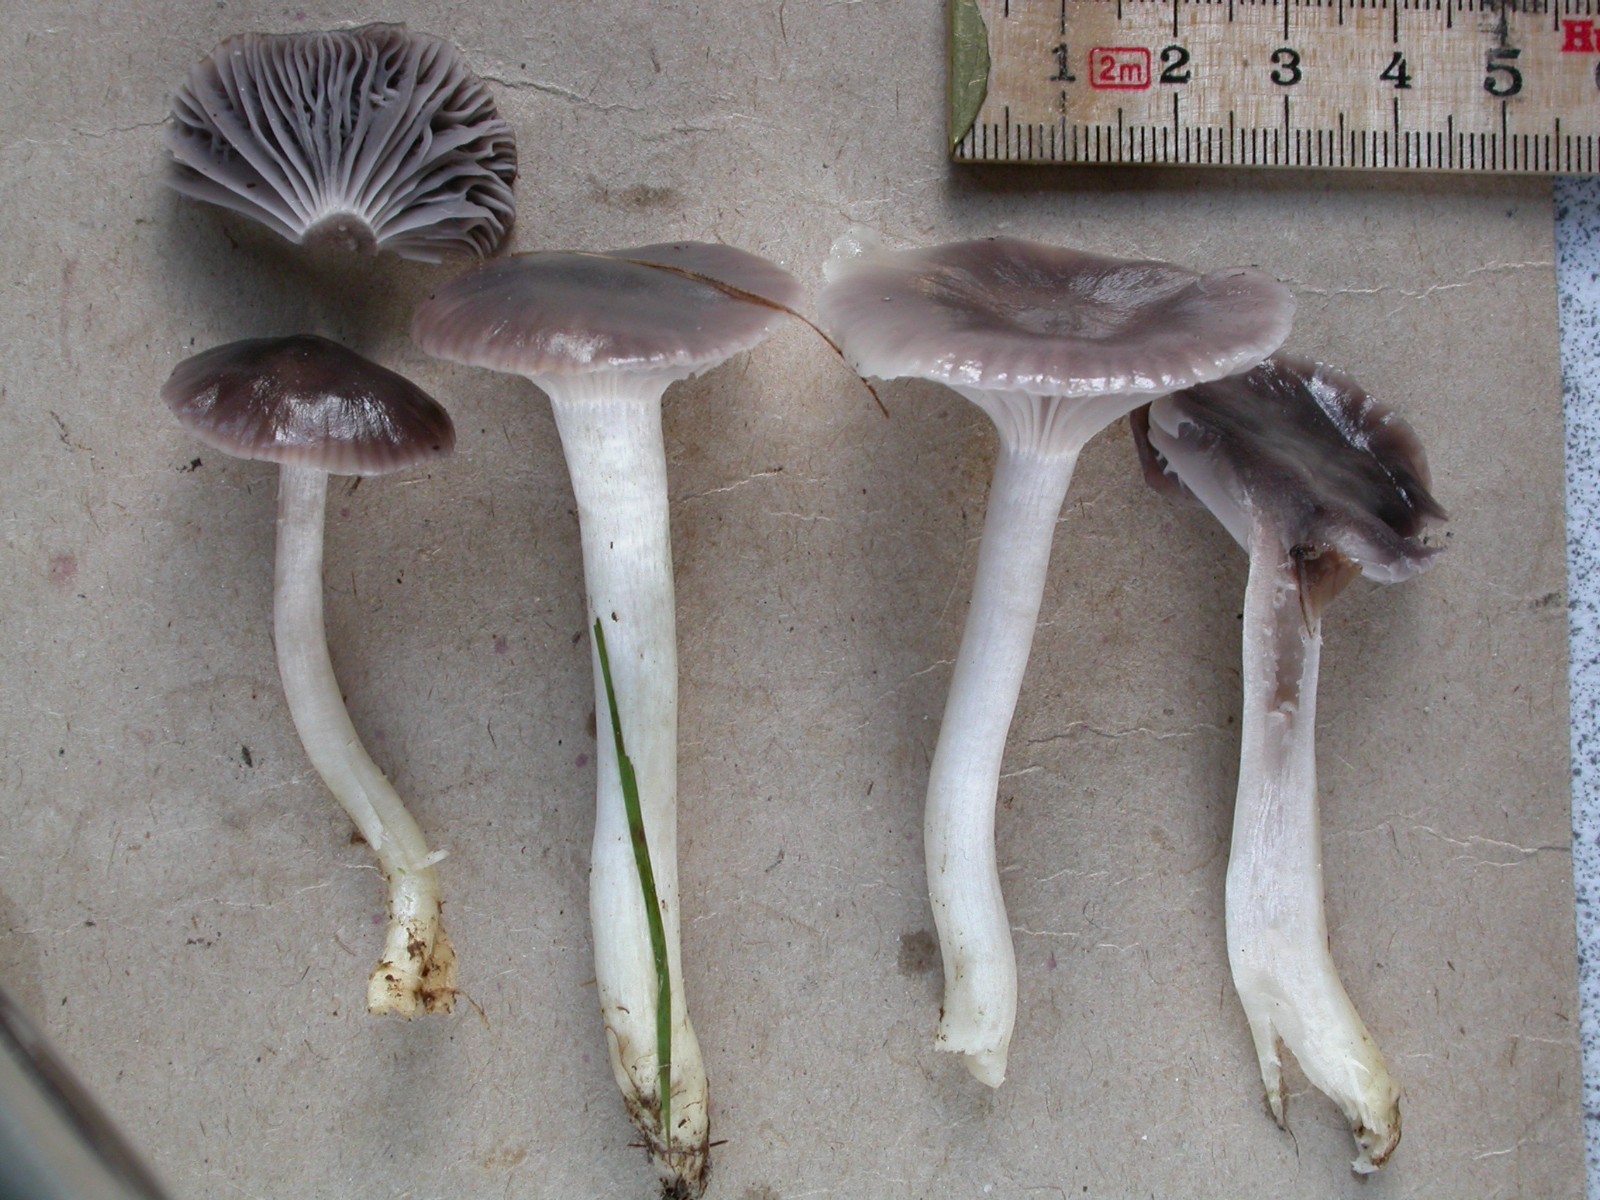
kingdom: Fungi
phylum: Basidiomycota
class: Agaricomycetes
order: Agaricales
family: Hygrophoraceae
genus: Cuphophyllus
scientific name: Cuphophyllus lacmus
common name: gråviolet vokshat
